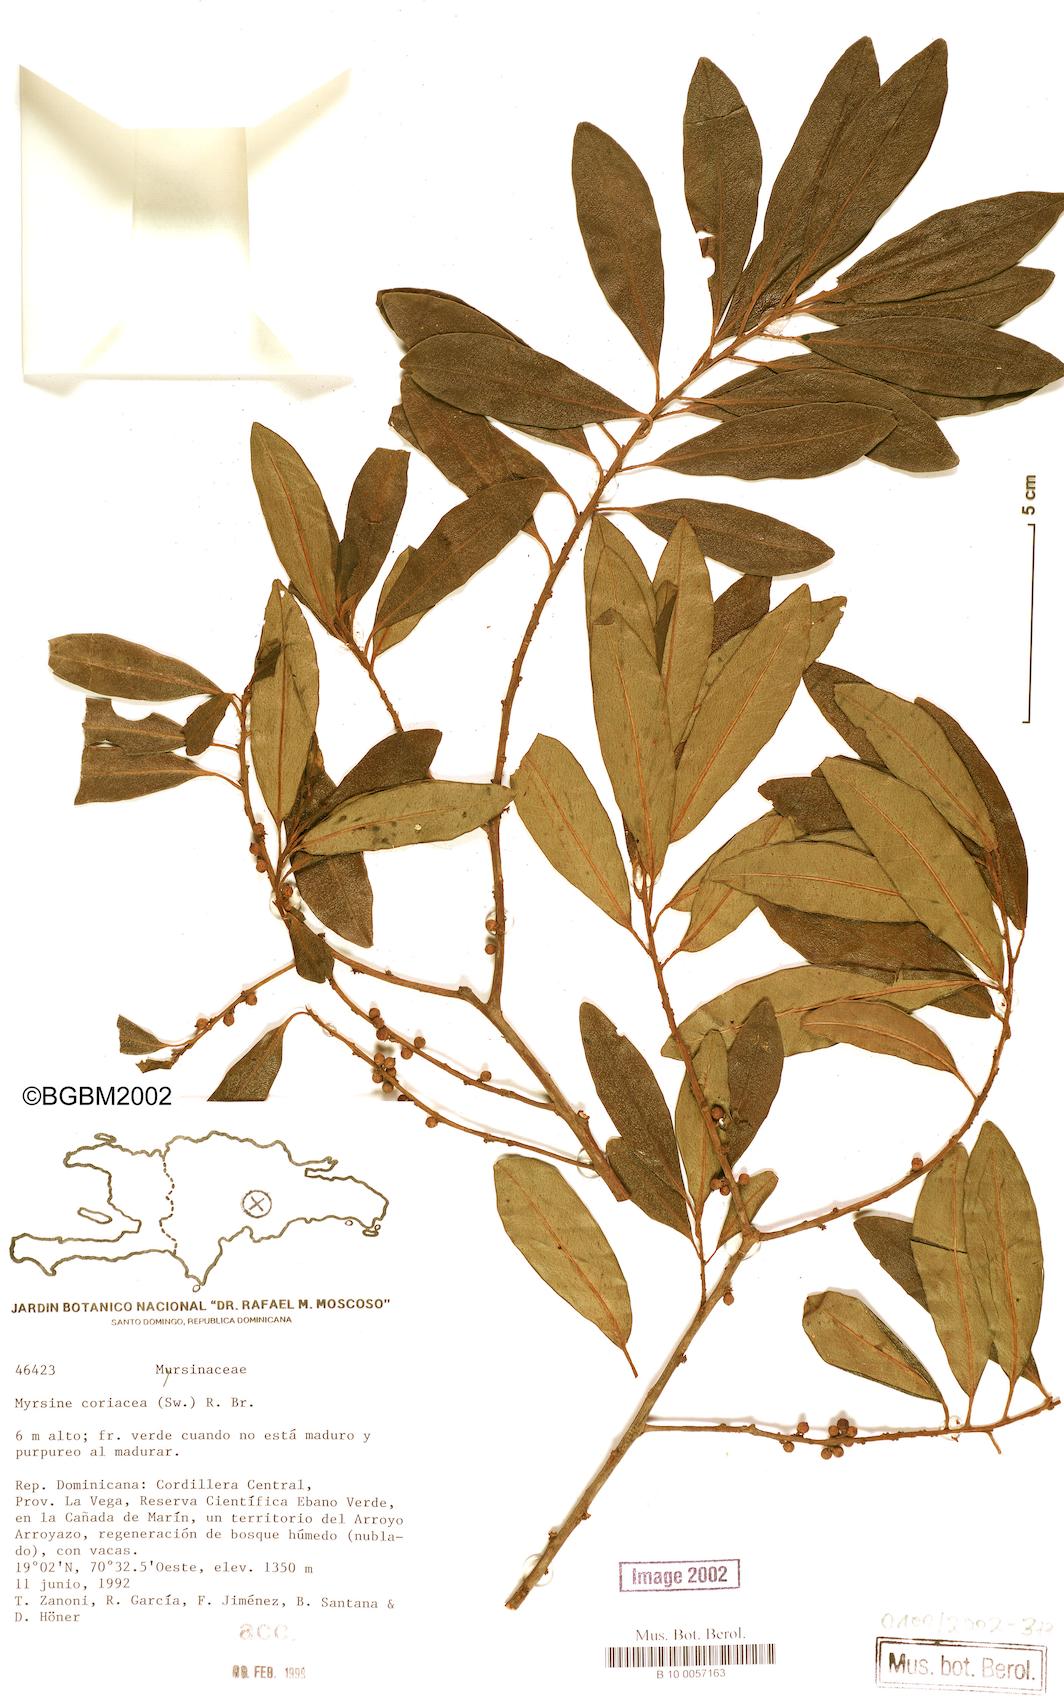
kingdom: Plantae
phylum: Tracheophyta
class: Magnoliopsida
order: Ericales
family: Primulaceae
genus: Myrsine
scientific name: Myrsine coriacea
